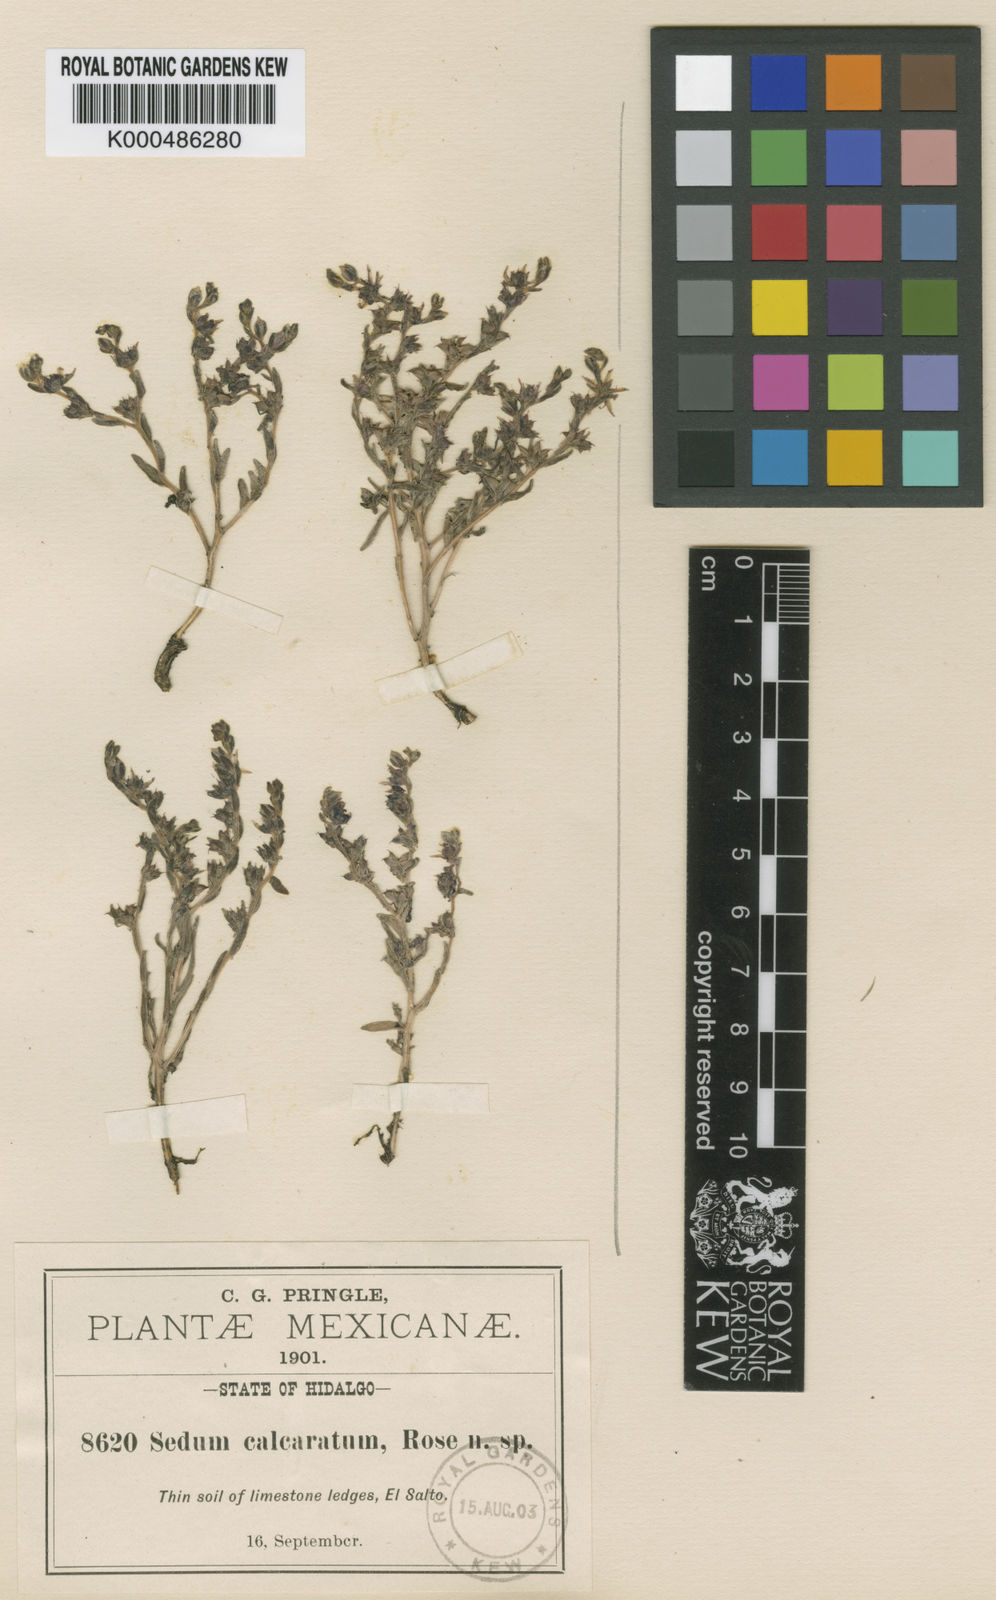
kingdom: Plantae
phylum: Tracheophyta
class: Magnoliopsida
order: Saxifragales
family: Crassulaceae
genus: Sedum
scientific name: Sedum calcaratum
